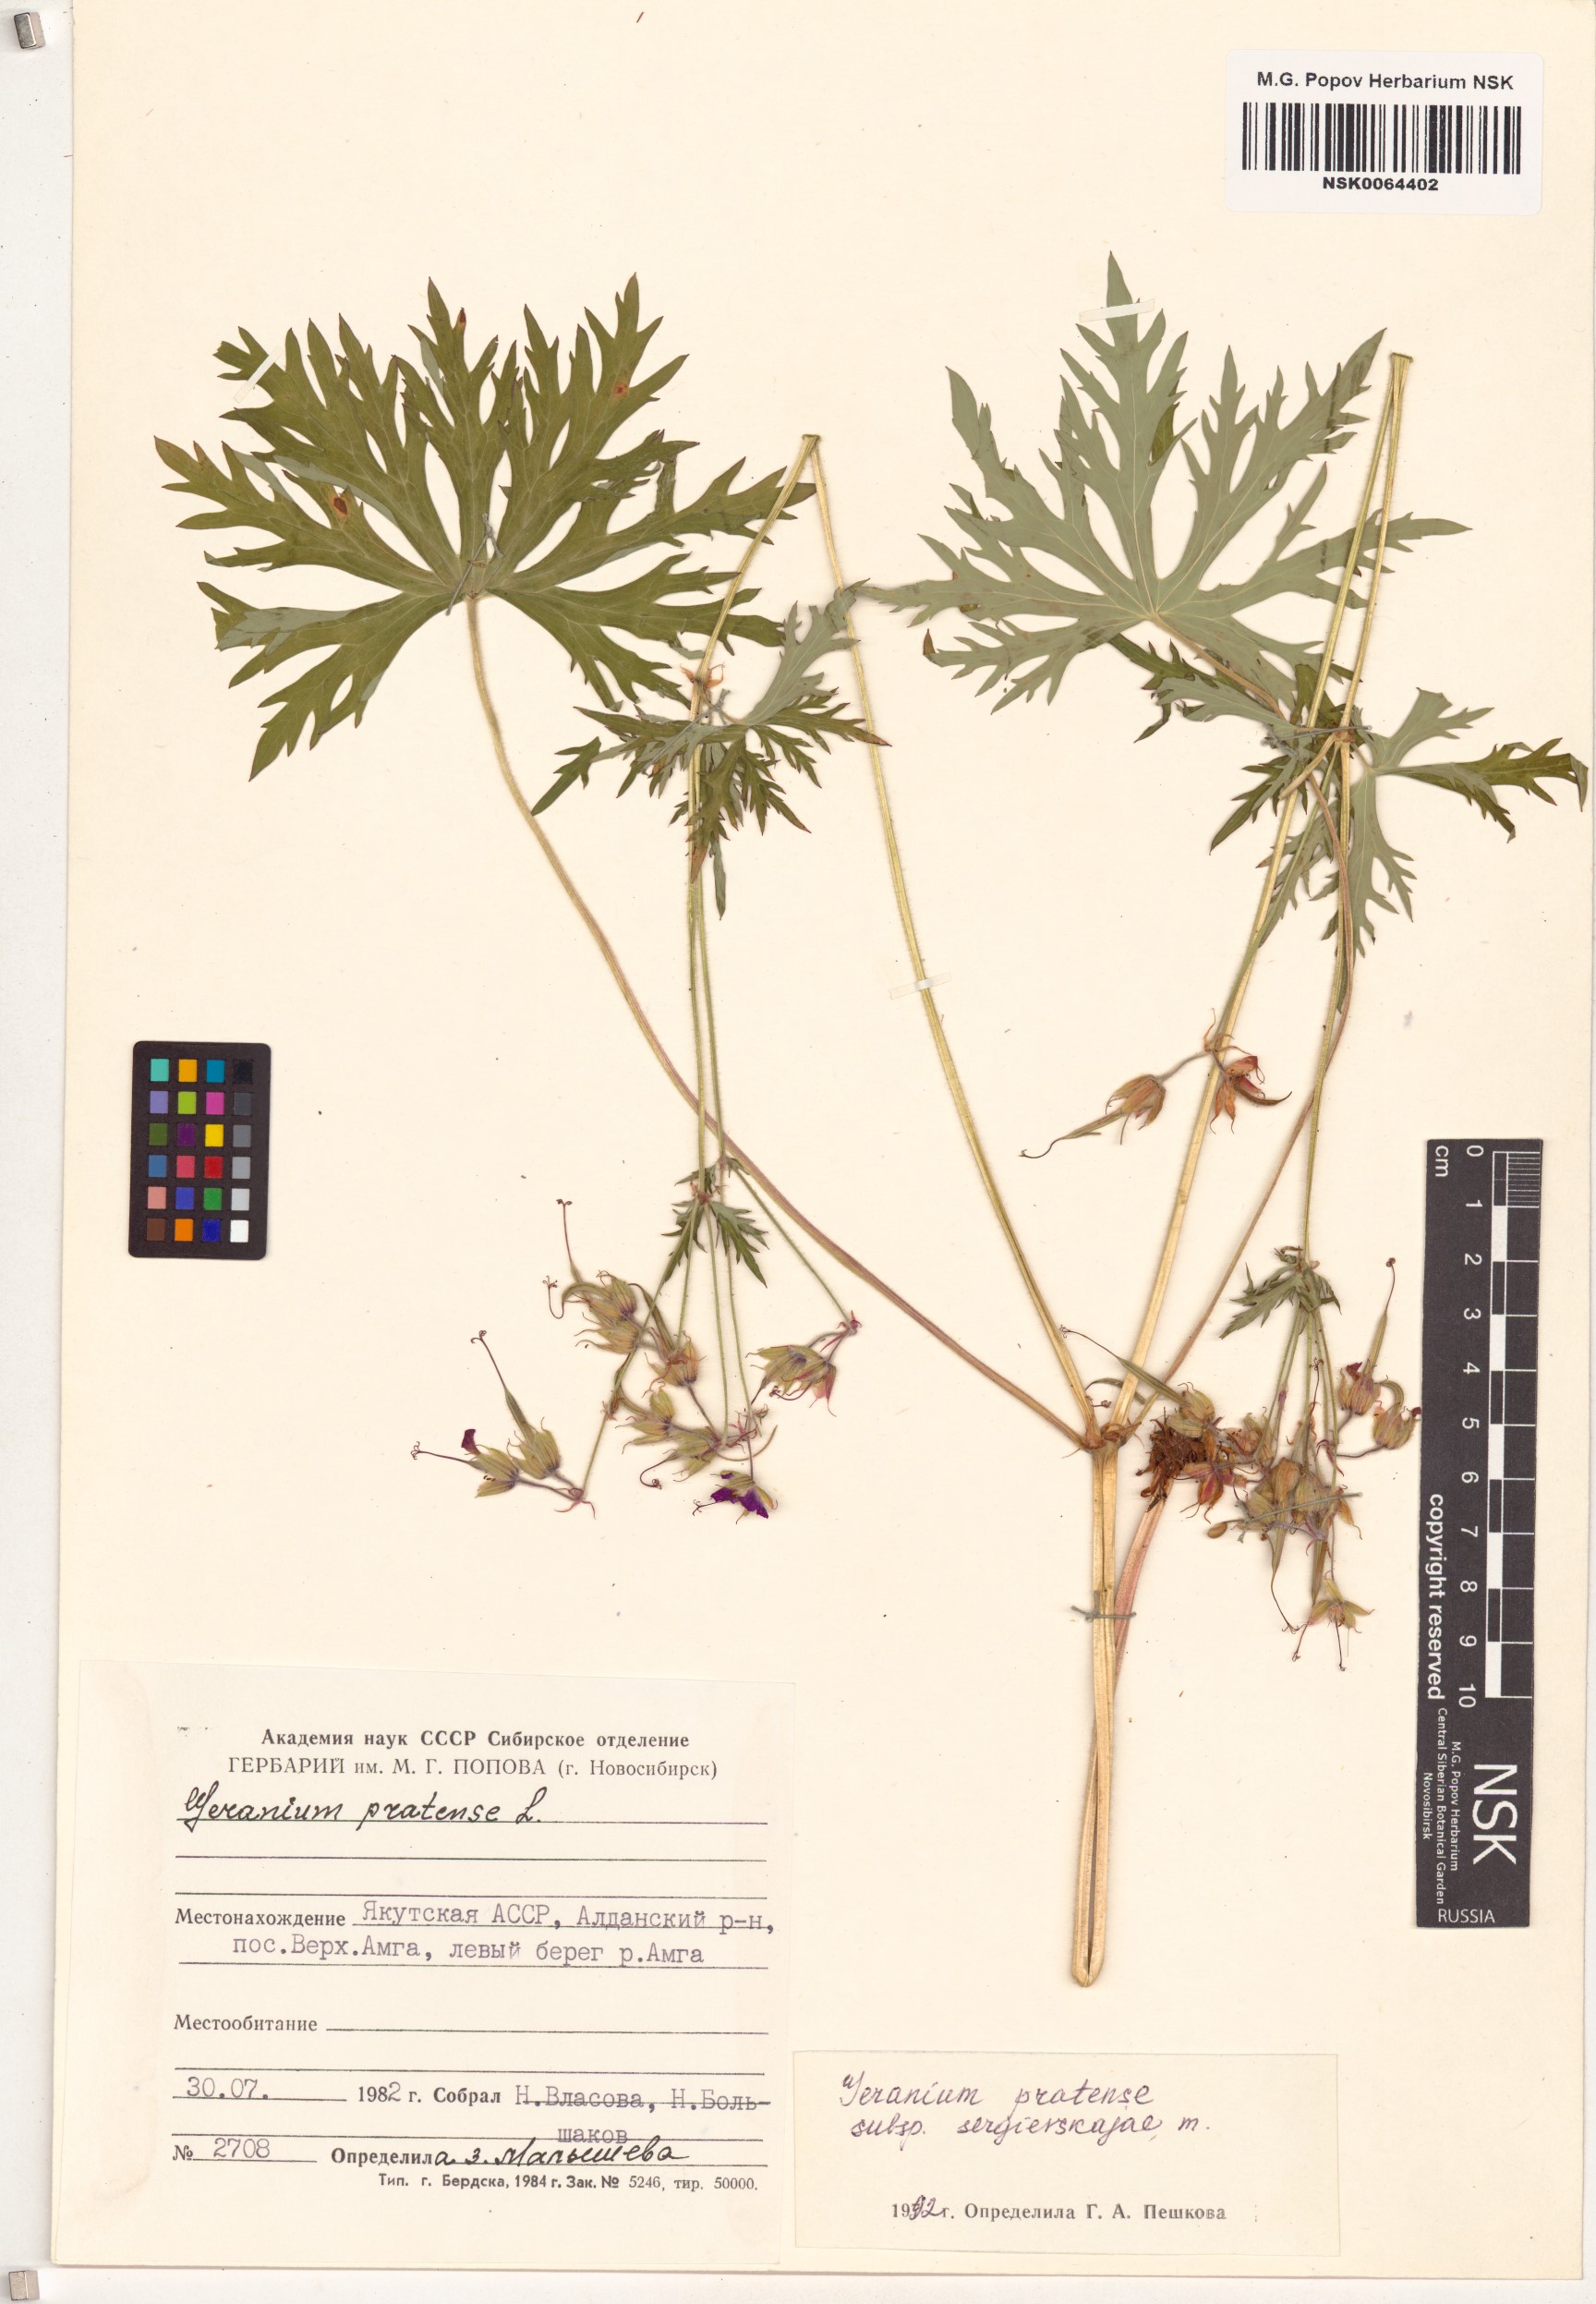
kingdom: Plantae
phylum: Tracheophyta
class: Magnoliopsida
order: Geraniales
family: Geraniaceae
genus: Geranium
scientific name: Geranium pratense
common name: Meadow crane's-bill
